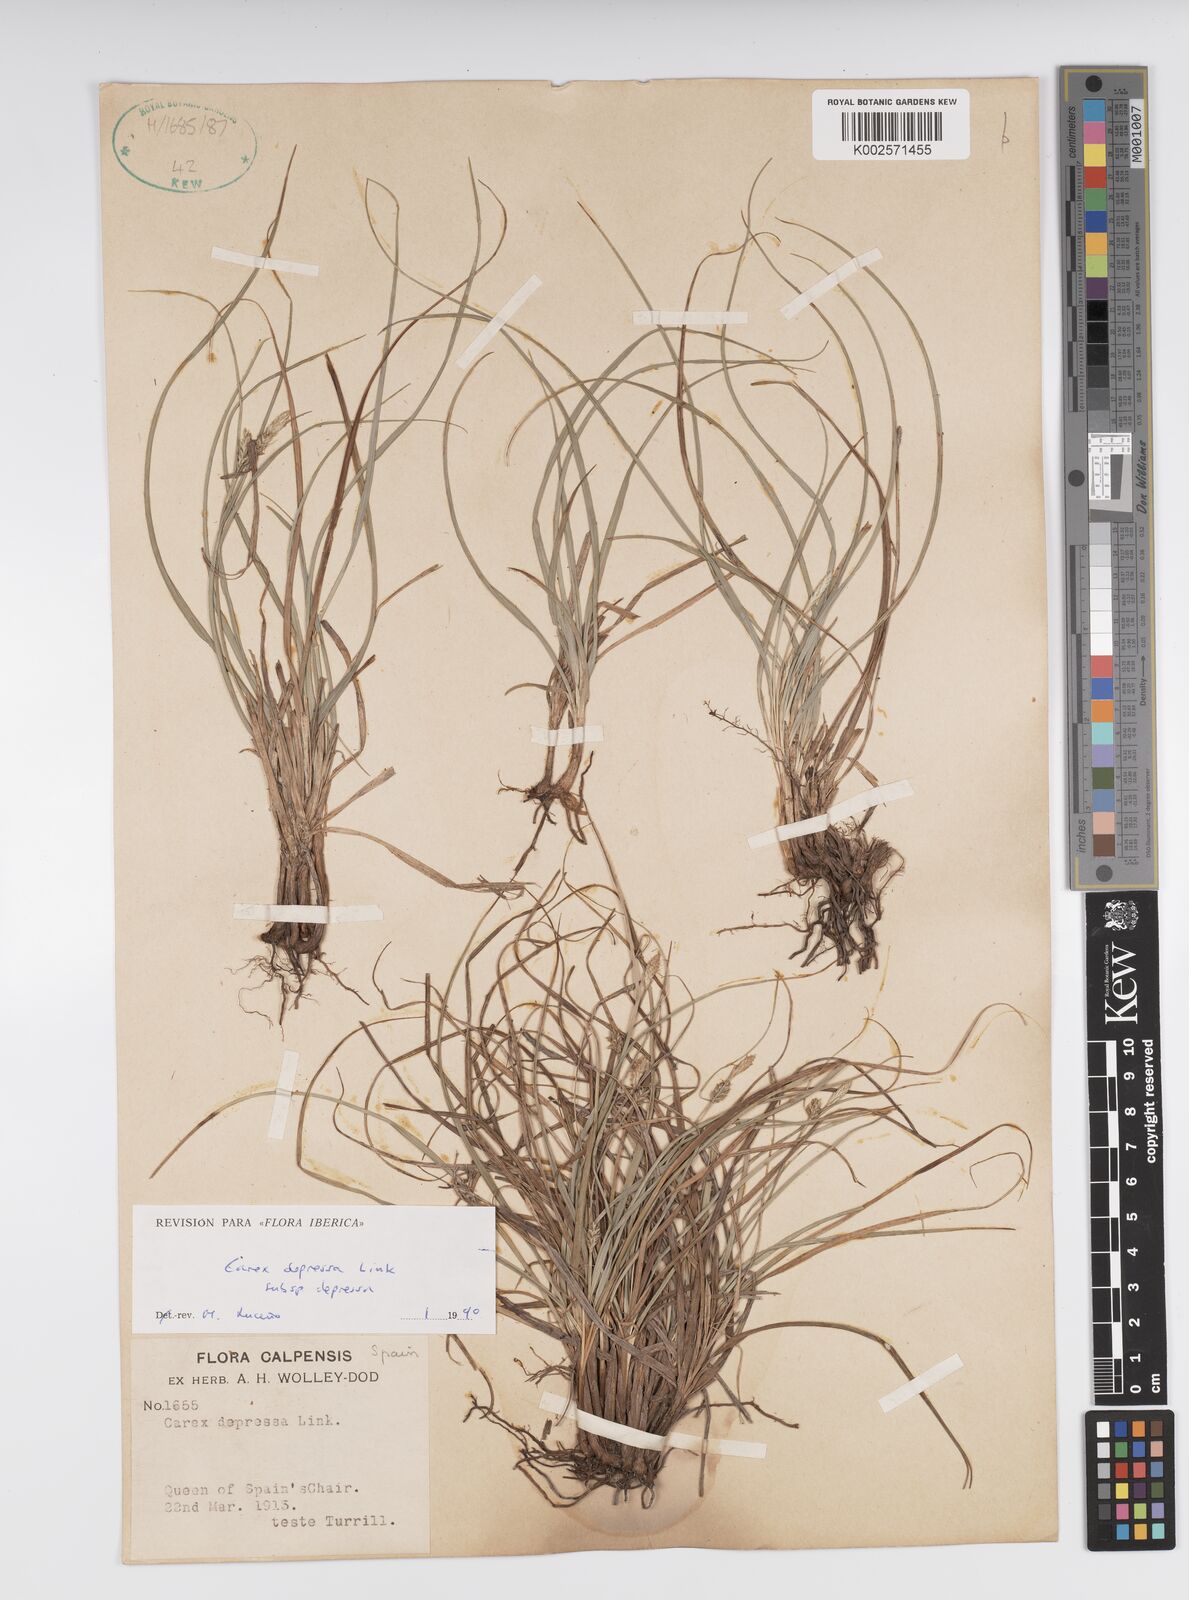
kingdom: Plantae
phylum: Tracheophyta
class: Liliopsida
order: Poales
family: Cyperaceae
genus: Carex
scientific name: Carex depressa
